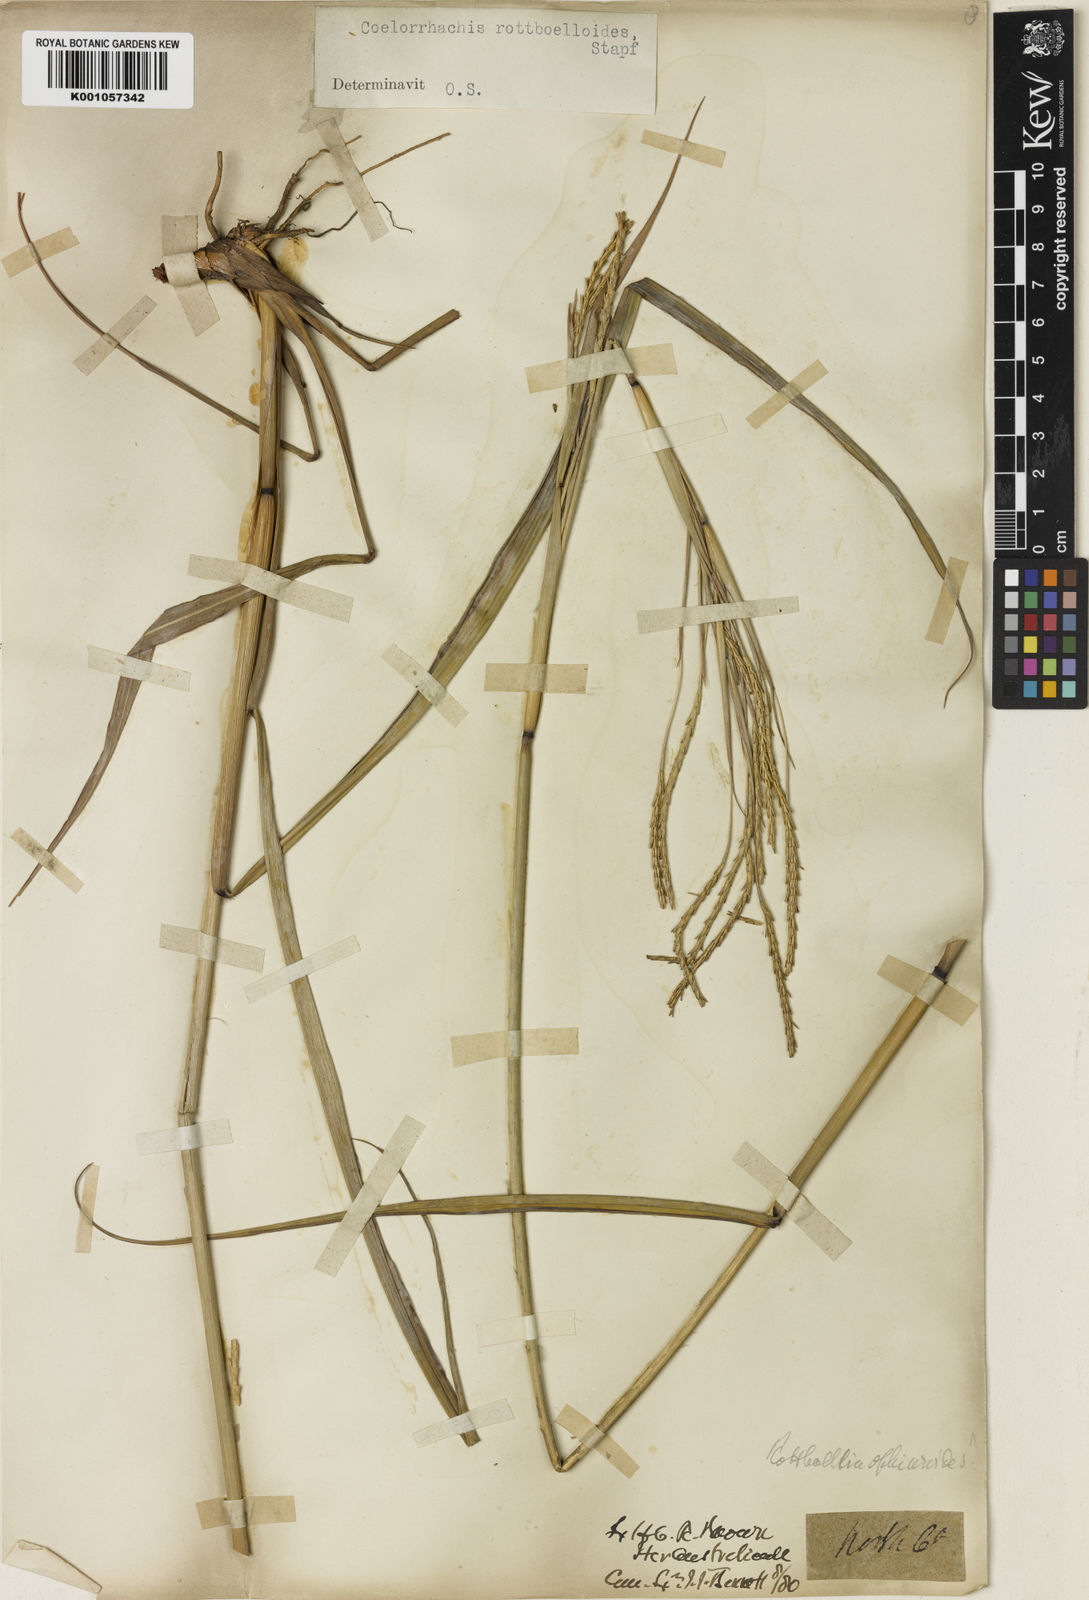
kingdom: Plantae
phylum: Tracheophyta
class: Liliopsida
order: Poales
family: Poaceae
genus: Rottboellia
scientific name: Rottboellia
